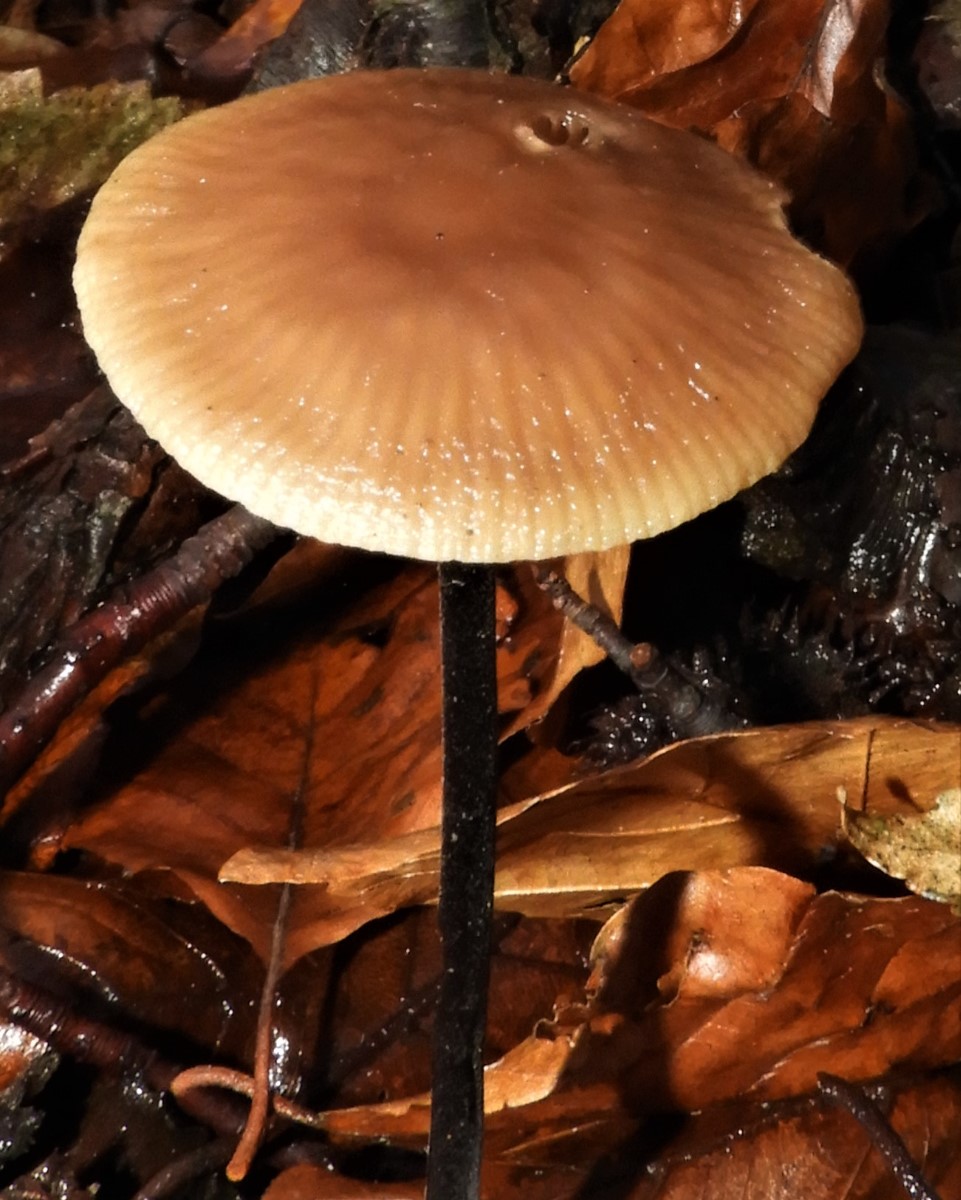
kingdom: Fungi
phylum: Basidiomycota
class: Agaricomycetes
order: Agaricales
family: Omphalotaceae
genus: Mycetinis
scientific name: Mycetinis alliaceus
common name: stor løghat
